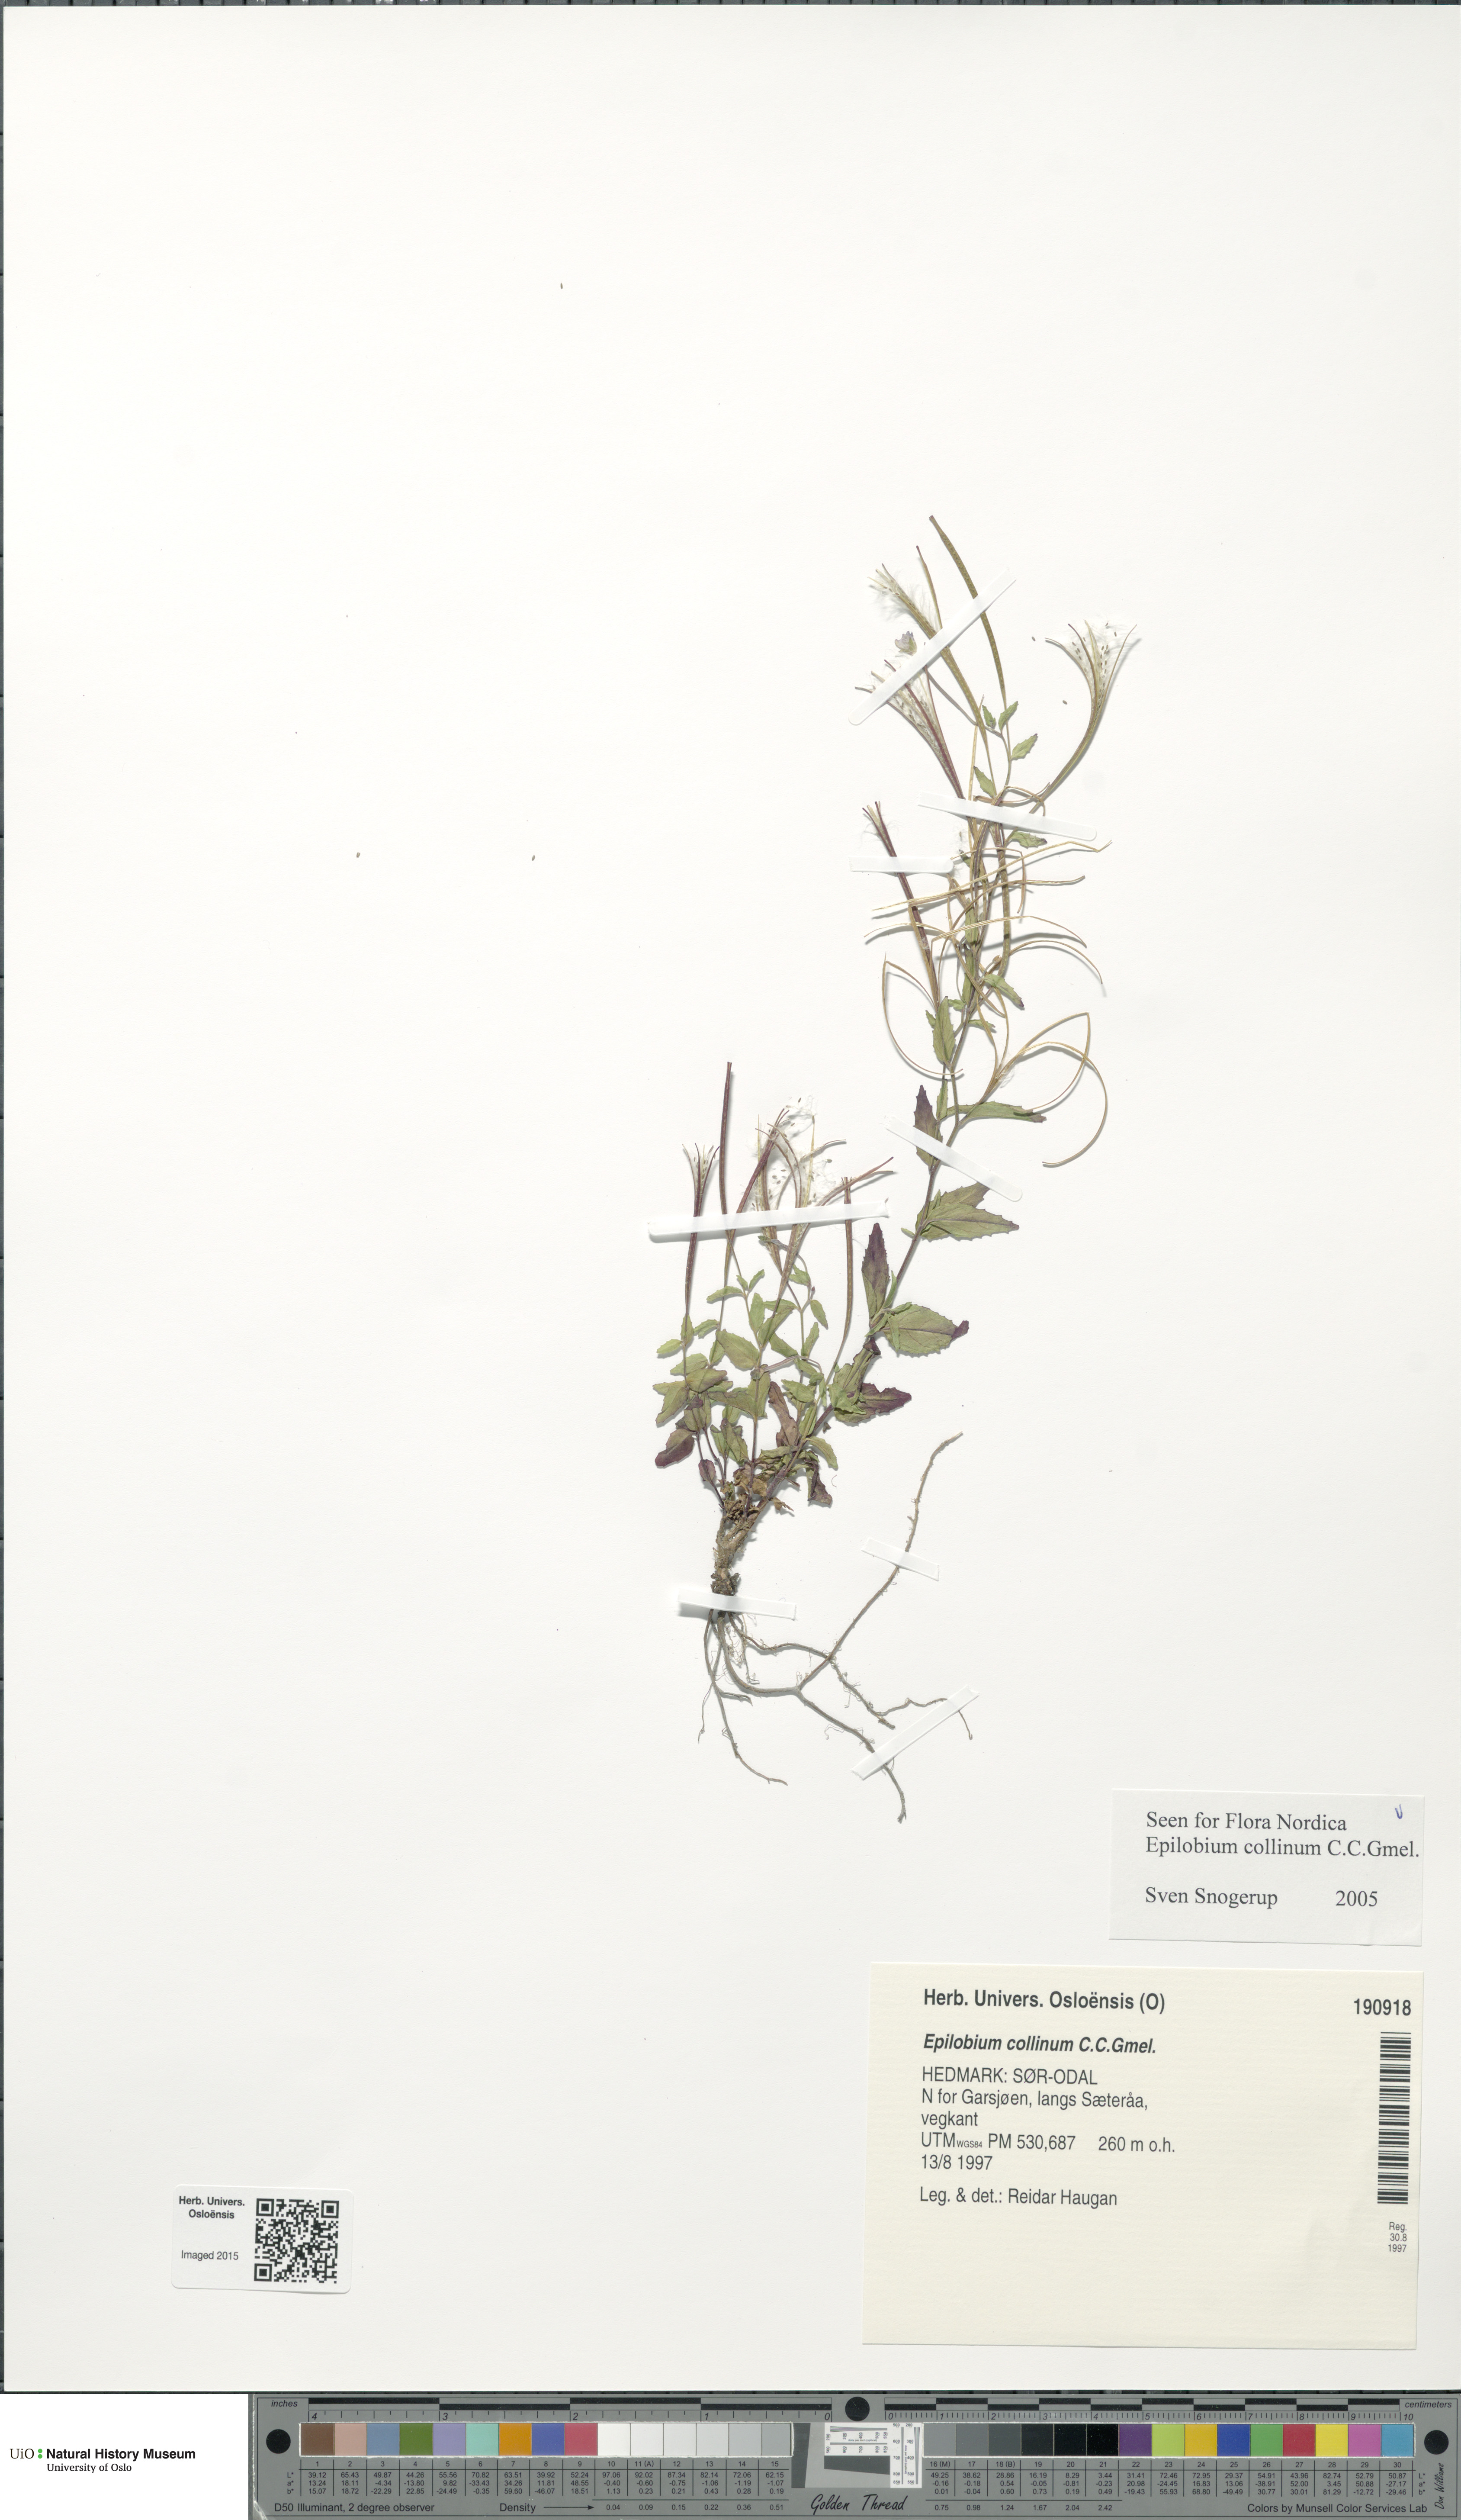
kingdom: Plantae
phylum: Tracheophyta
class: Magnoliopsida
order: Myrtales
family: Onagraceae
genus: Epilobium
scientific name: Epilobium collinum
